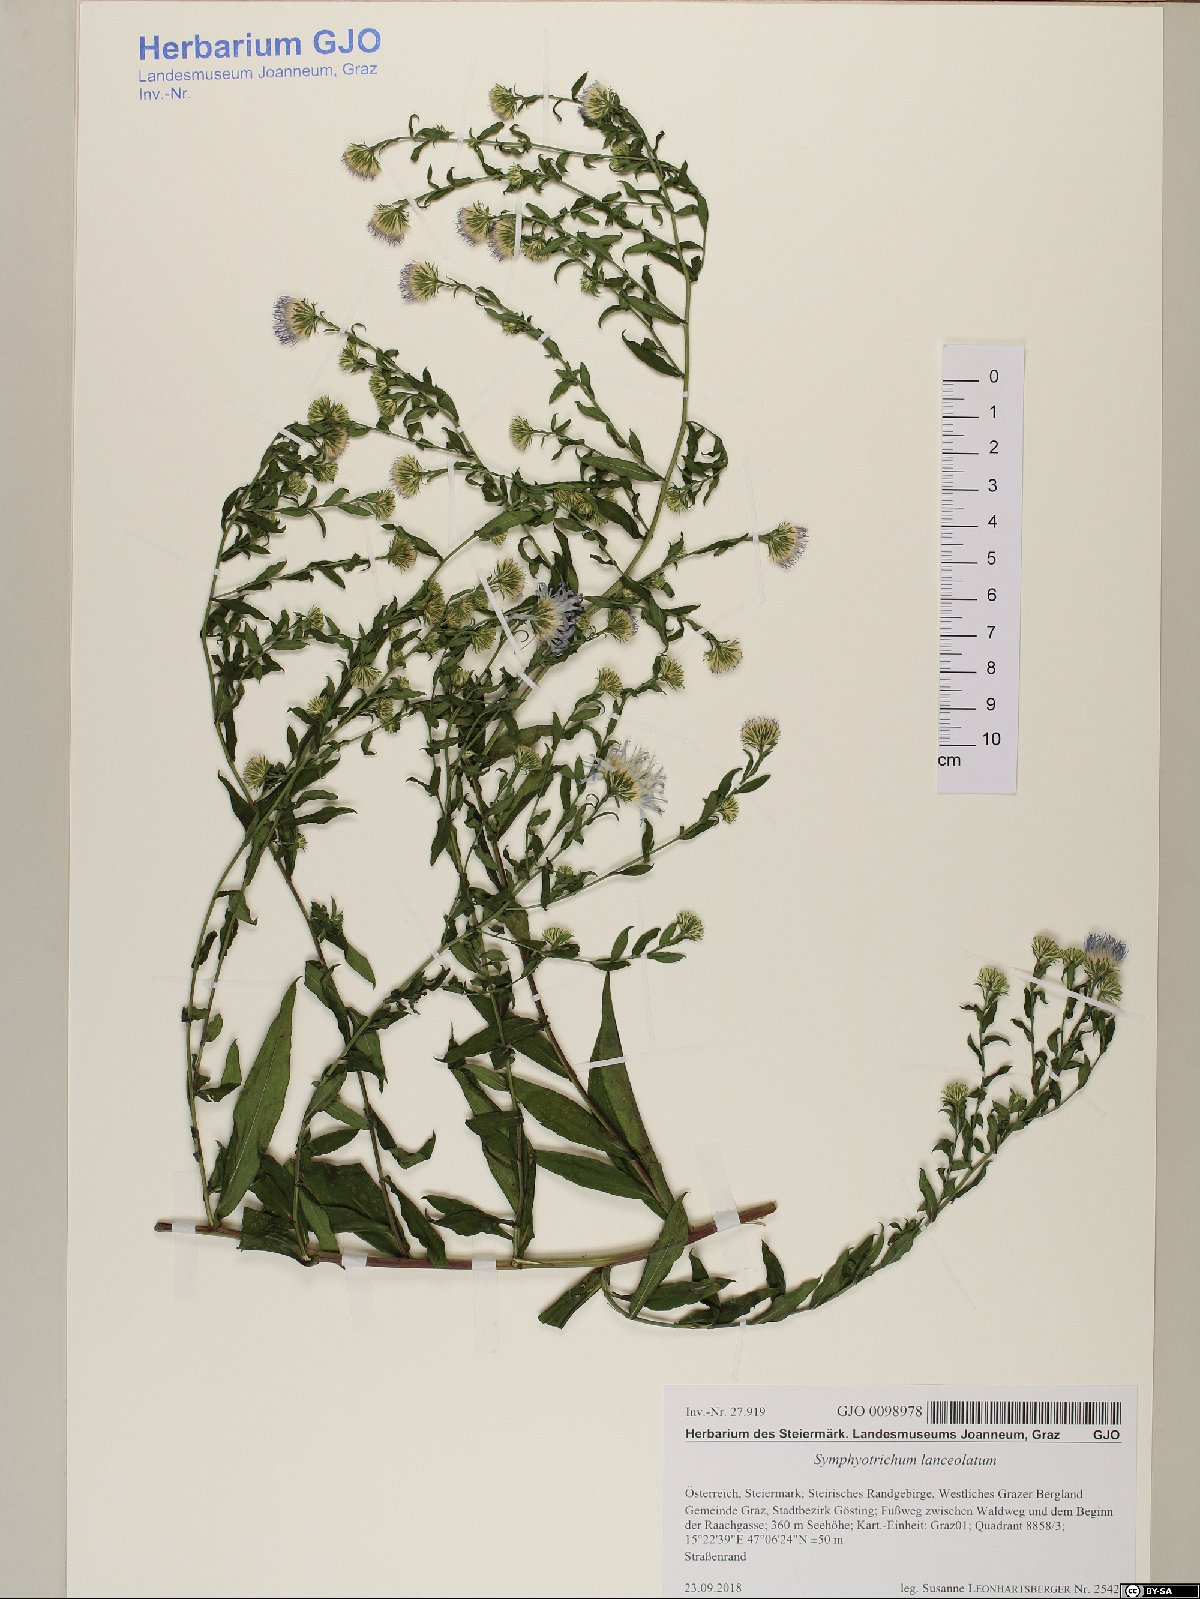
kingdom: Plantae
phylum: Tracheophyta
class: Magnoliopsida
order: Asterales
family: Asteraceae
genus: Symphyotrichum
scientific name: Symphyotrichum lanceolatum
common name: Panicled aster
